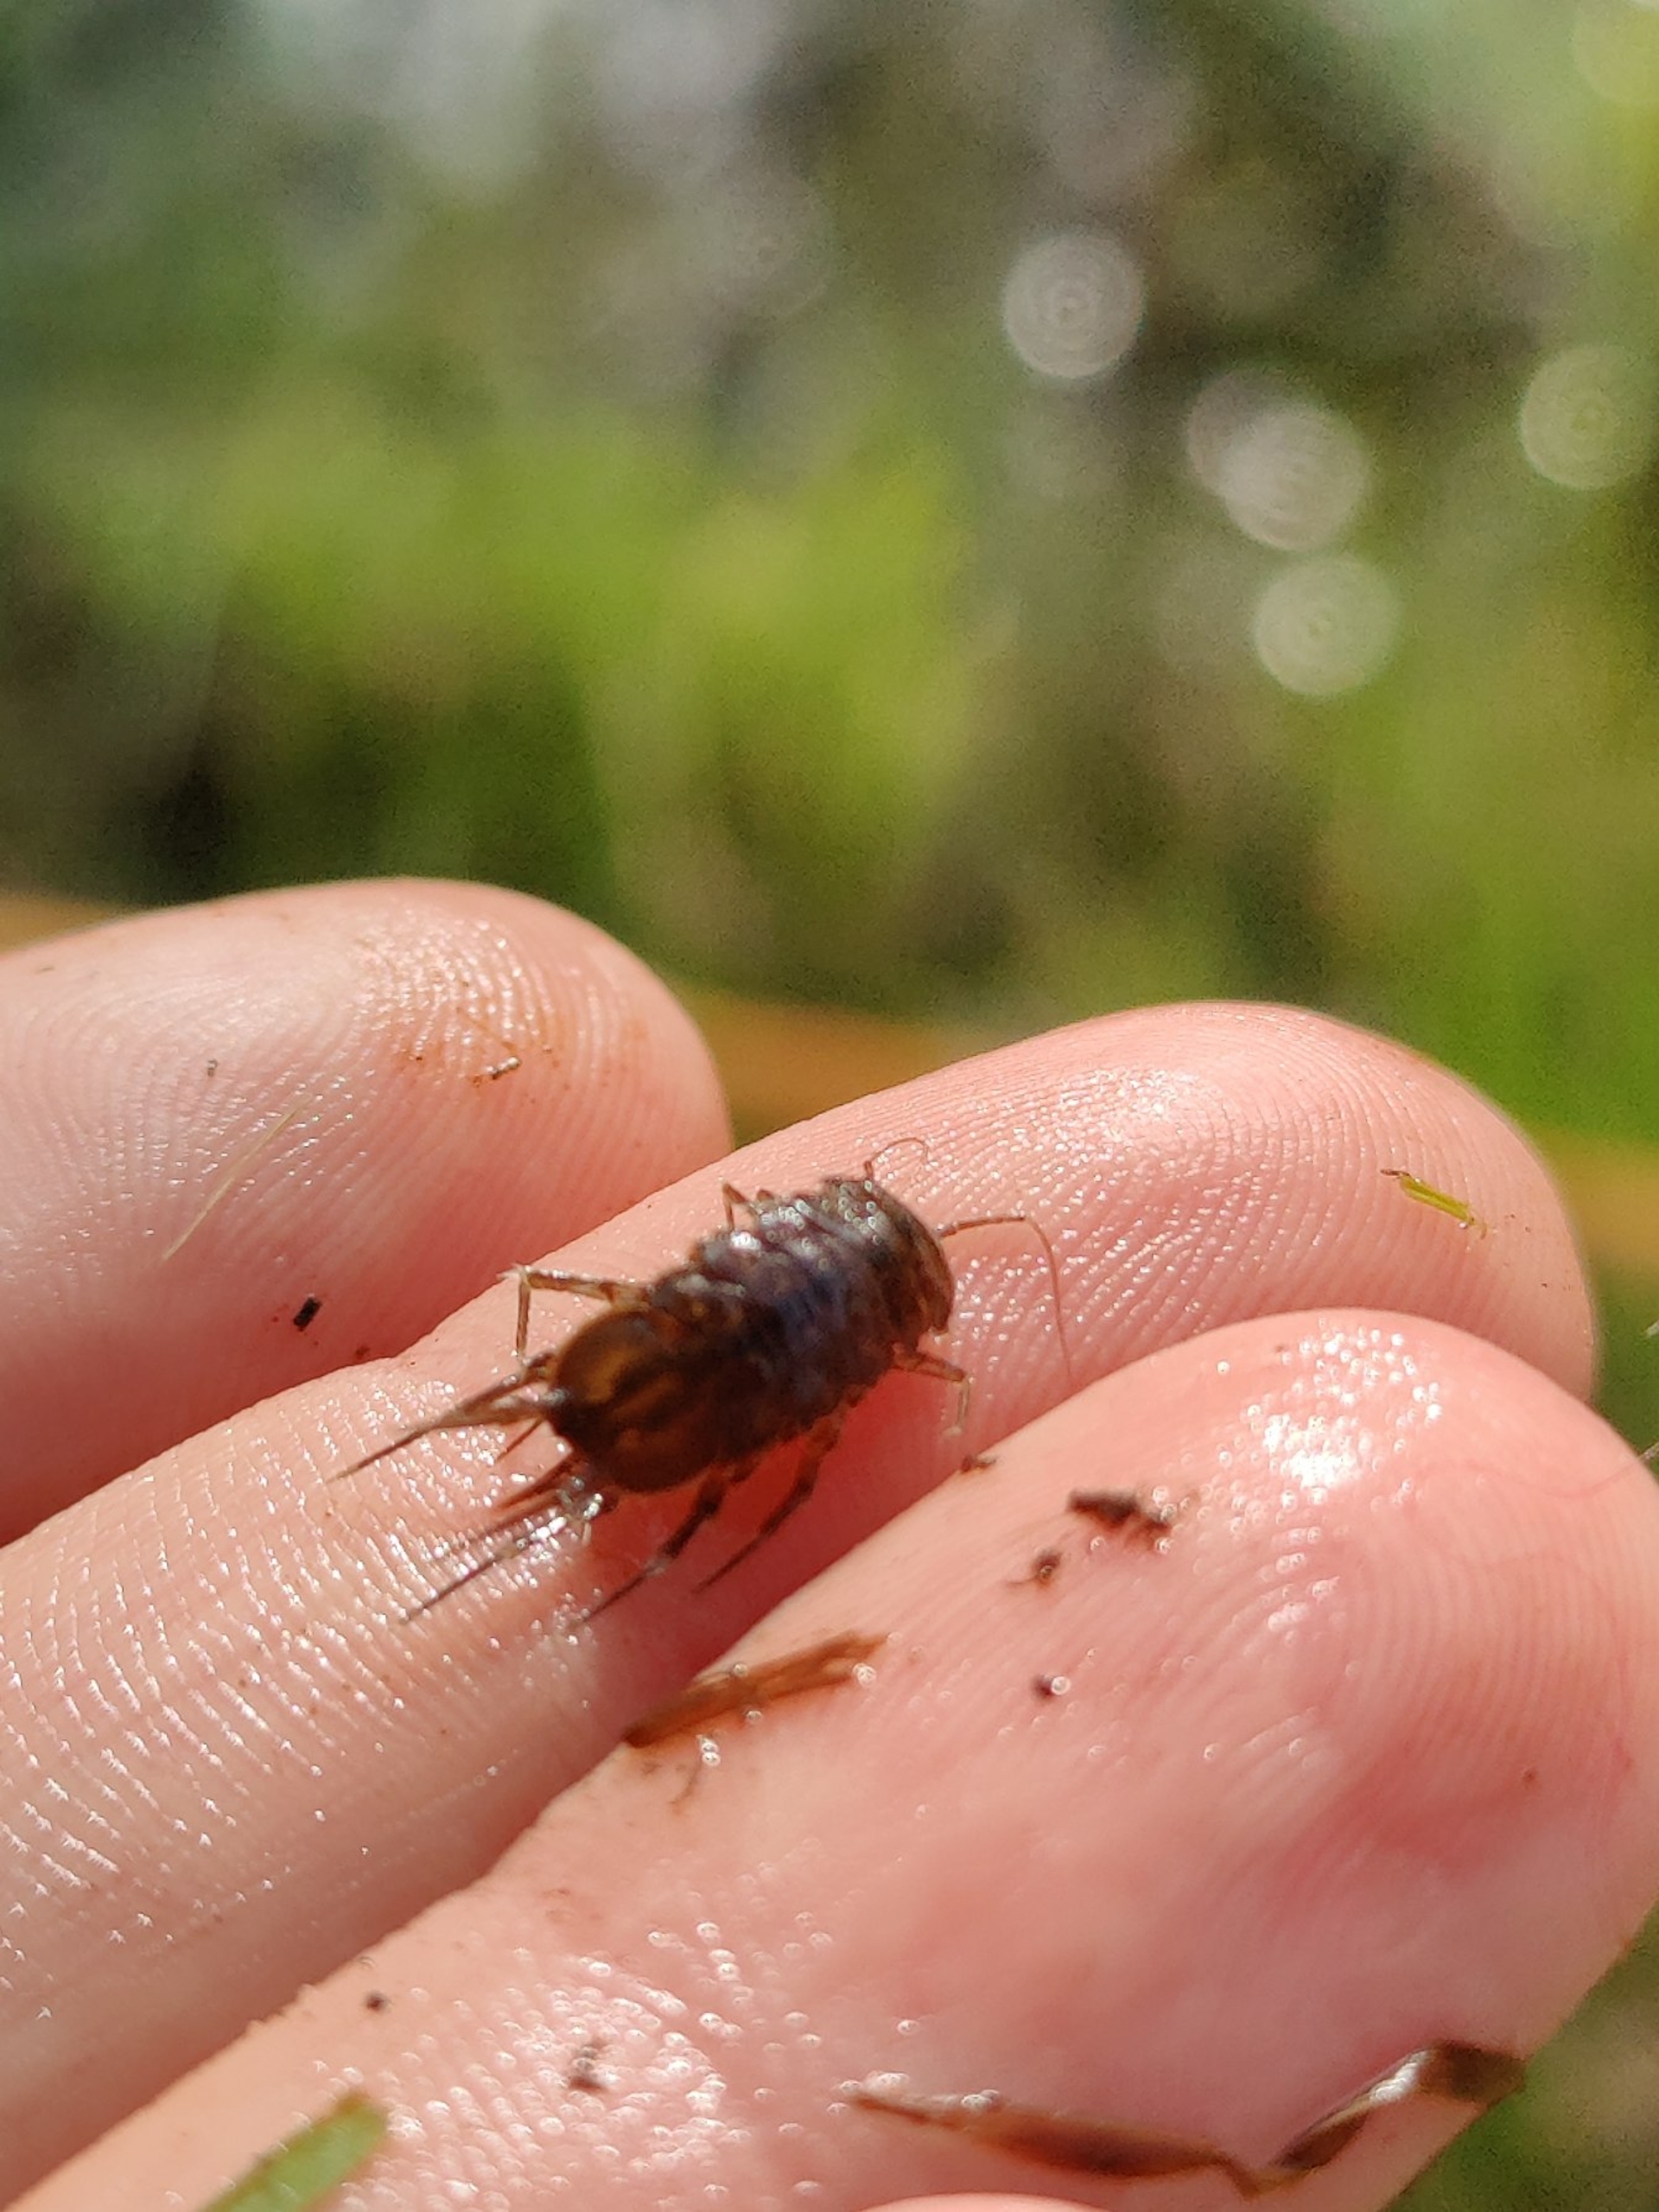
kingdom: Animalia
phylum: Arthropoda
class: Malacostraca
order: Isopoda
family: Asellidae
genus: Asellus
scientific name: Asellus aquaticus
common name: Vandbænkebider
